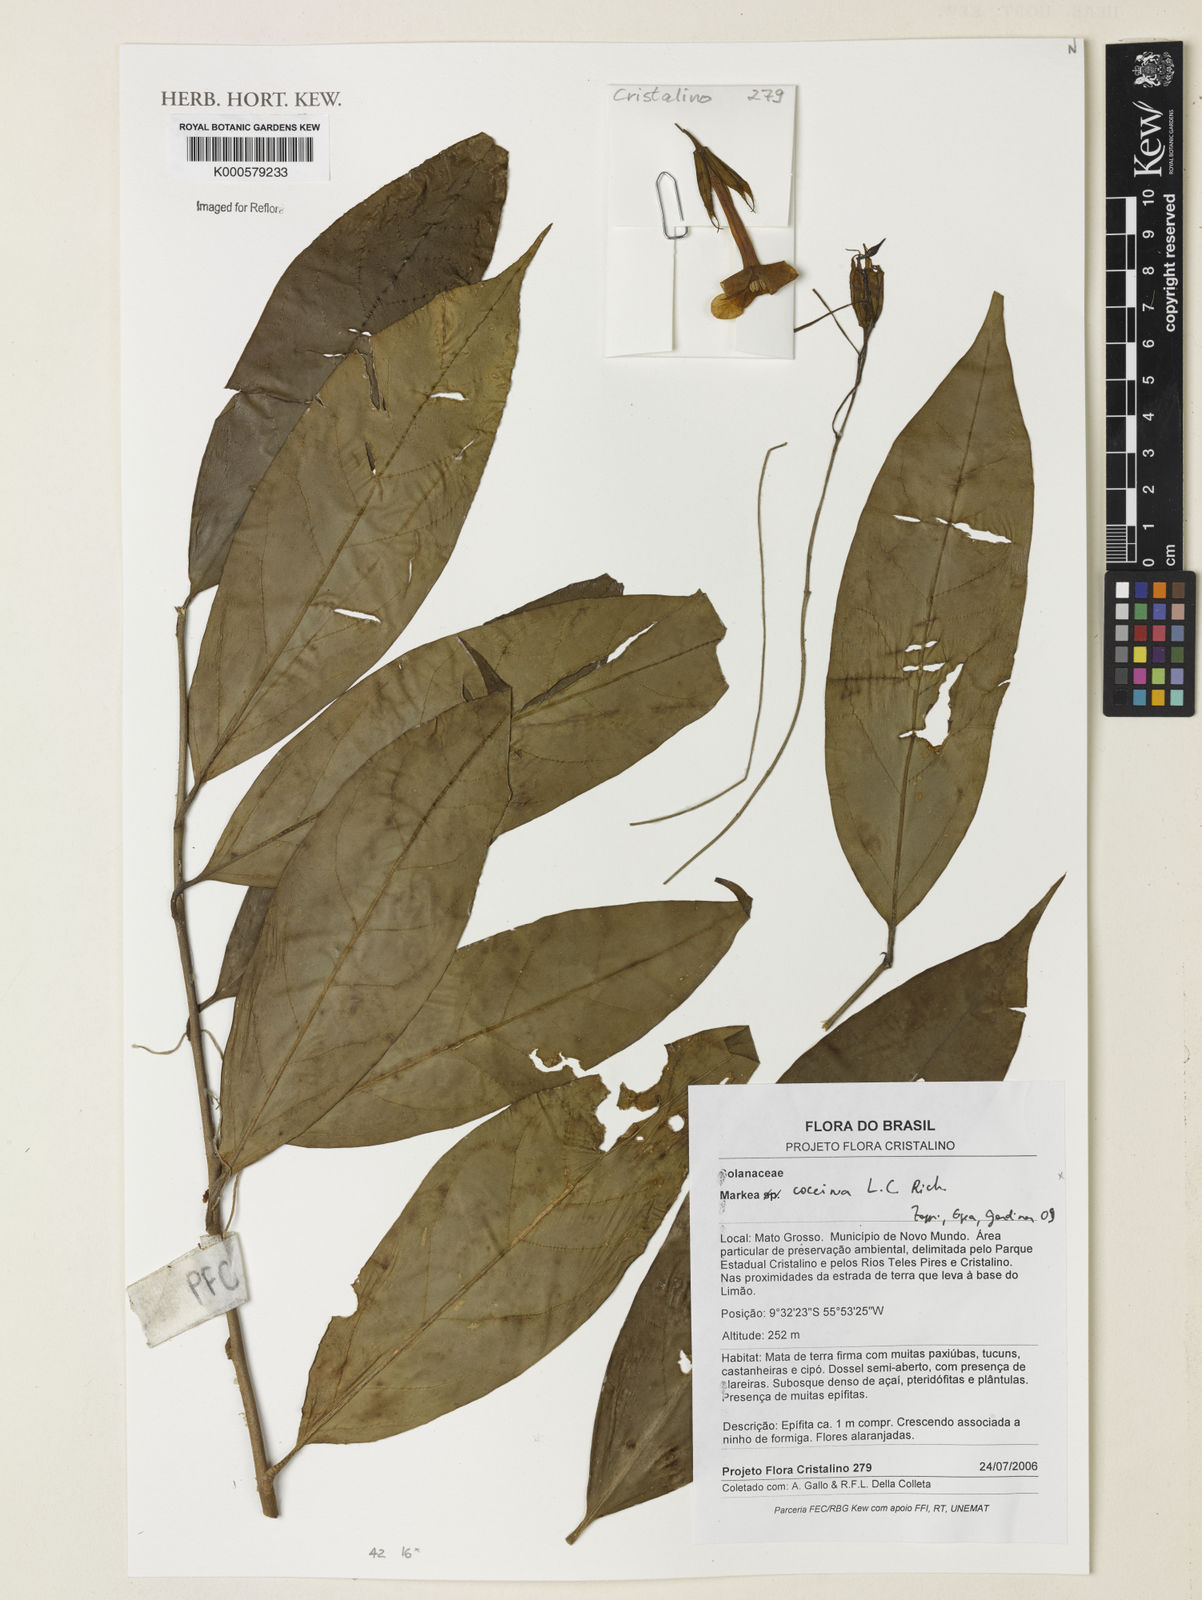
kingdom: Plantae
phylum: Tracheophyta
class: Magnoliopsida
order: Solanales
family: Solanaceae
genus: Markea
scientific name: Markea coccinea
